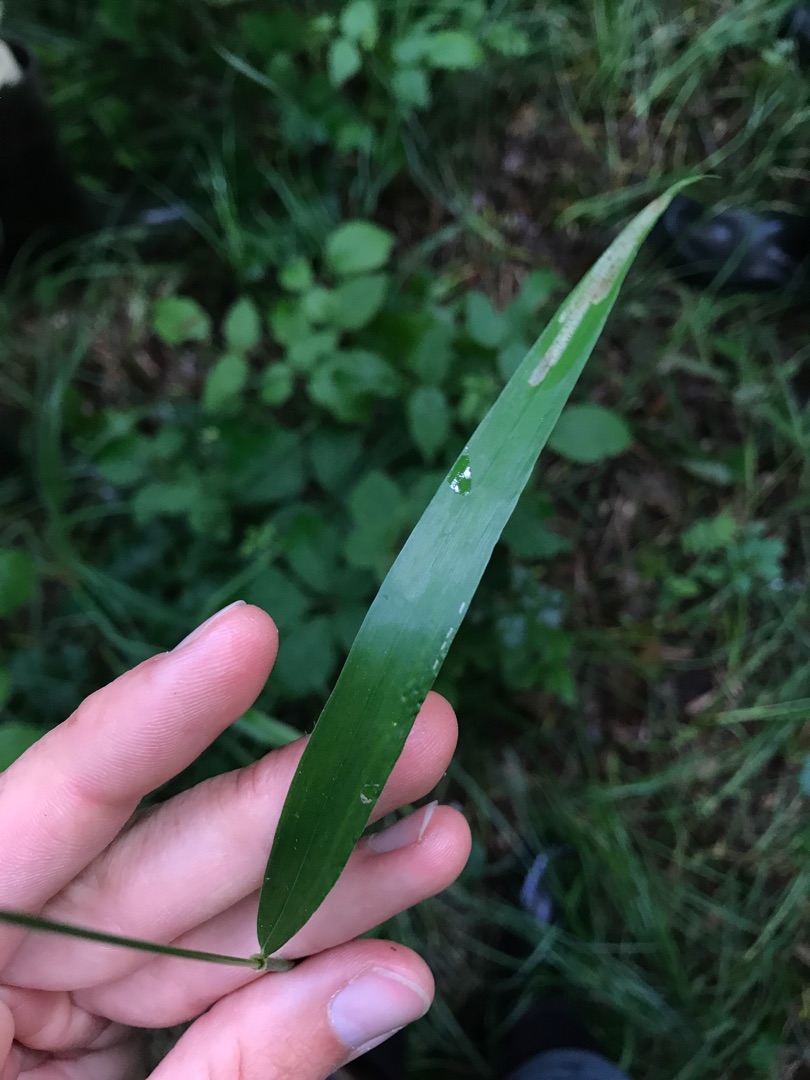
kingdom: Plantae
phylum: Tracheophyta
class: Liliopsida
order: Poales
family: Poaceae
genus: Hordelymus
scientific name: Hordelymus europaeus
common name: Skovbyg
